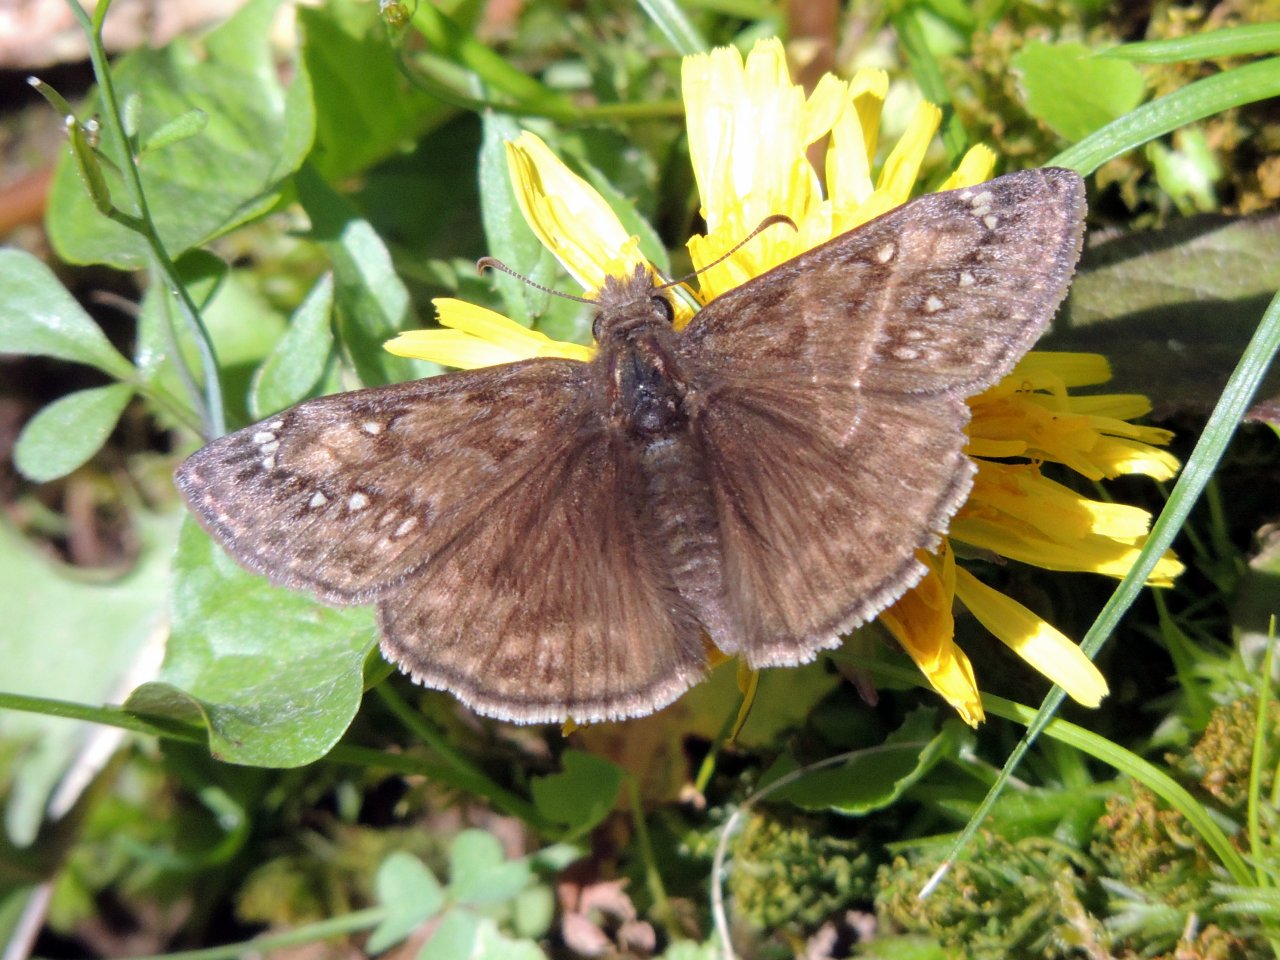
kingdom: Animalia
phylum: Arthropoda
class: Insecta
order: Lepidoptera
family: Hesperiidae
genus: Gesta
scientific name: Gesta
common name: Juvenal's Duskywing
